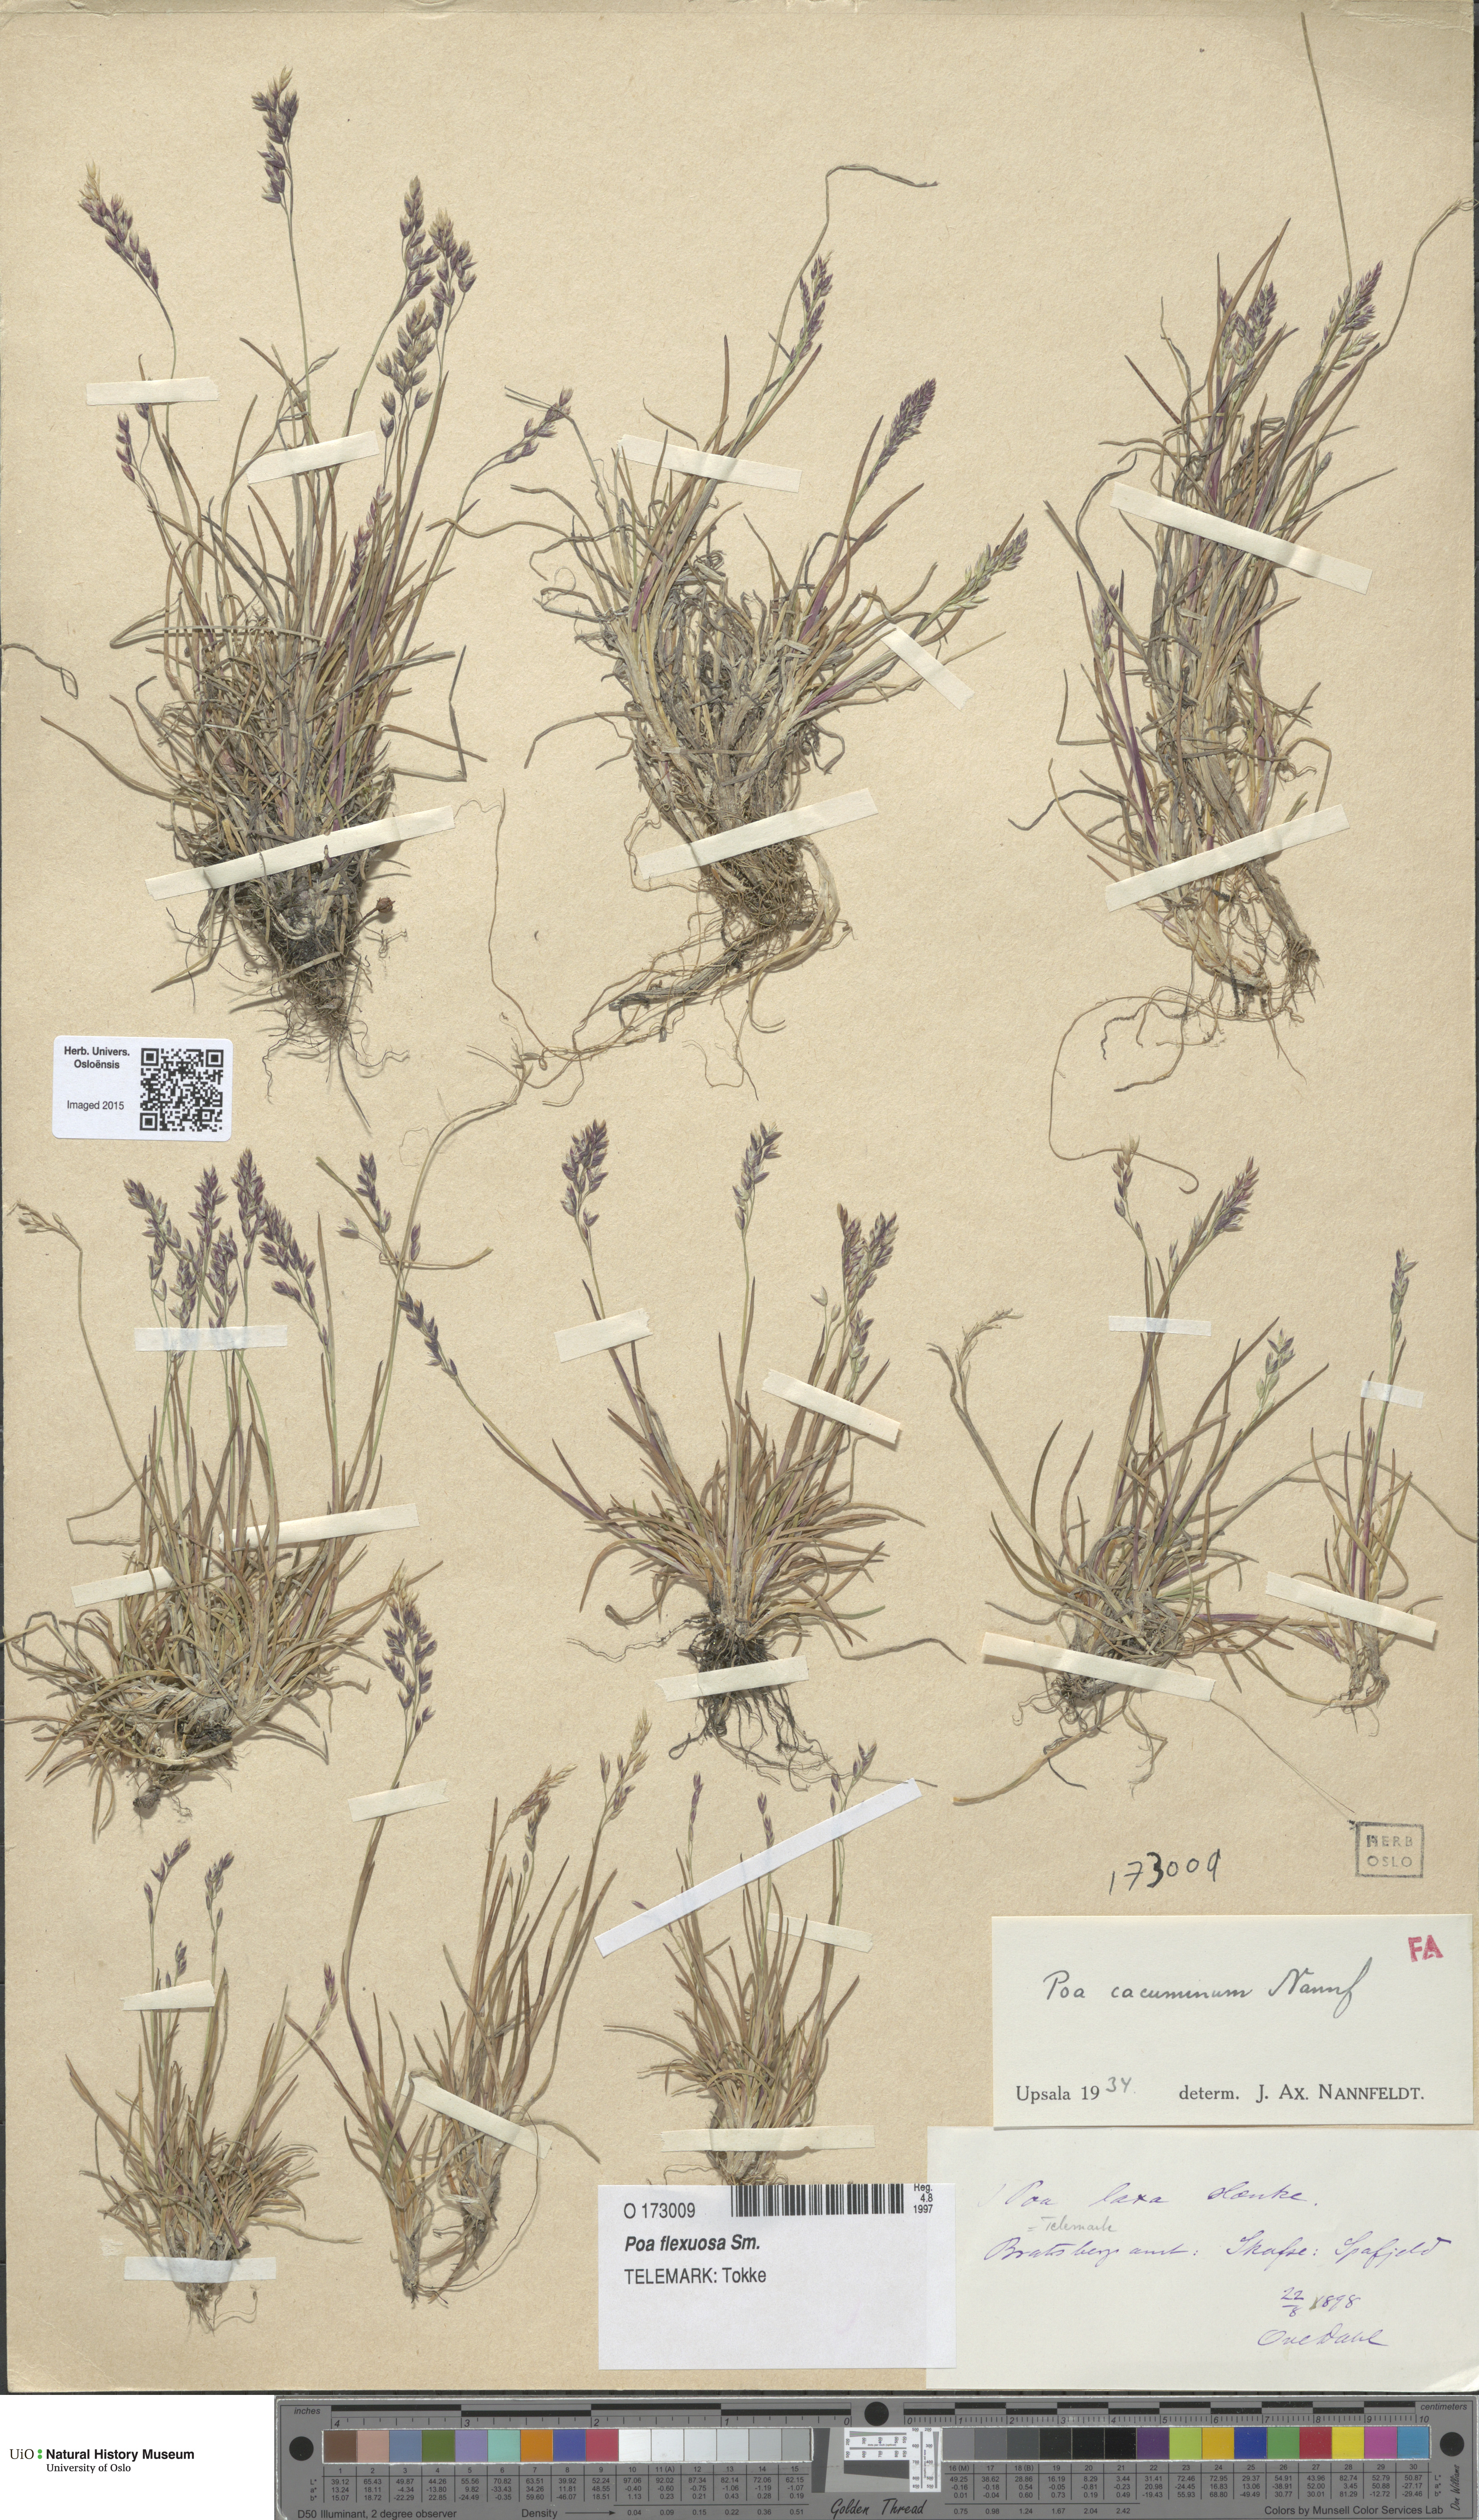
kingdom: Plantae
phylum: Tracheophyta
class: Liliopsida
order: Poales
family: Poaceae
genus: Poa
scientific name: Poa flexuosa
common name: Wavy meadow-grass
